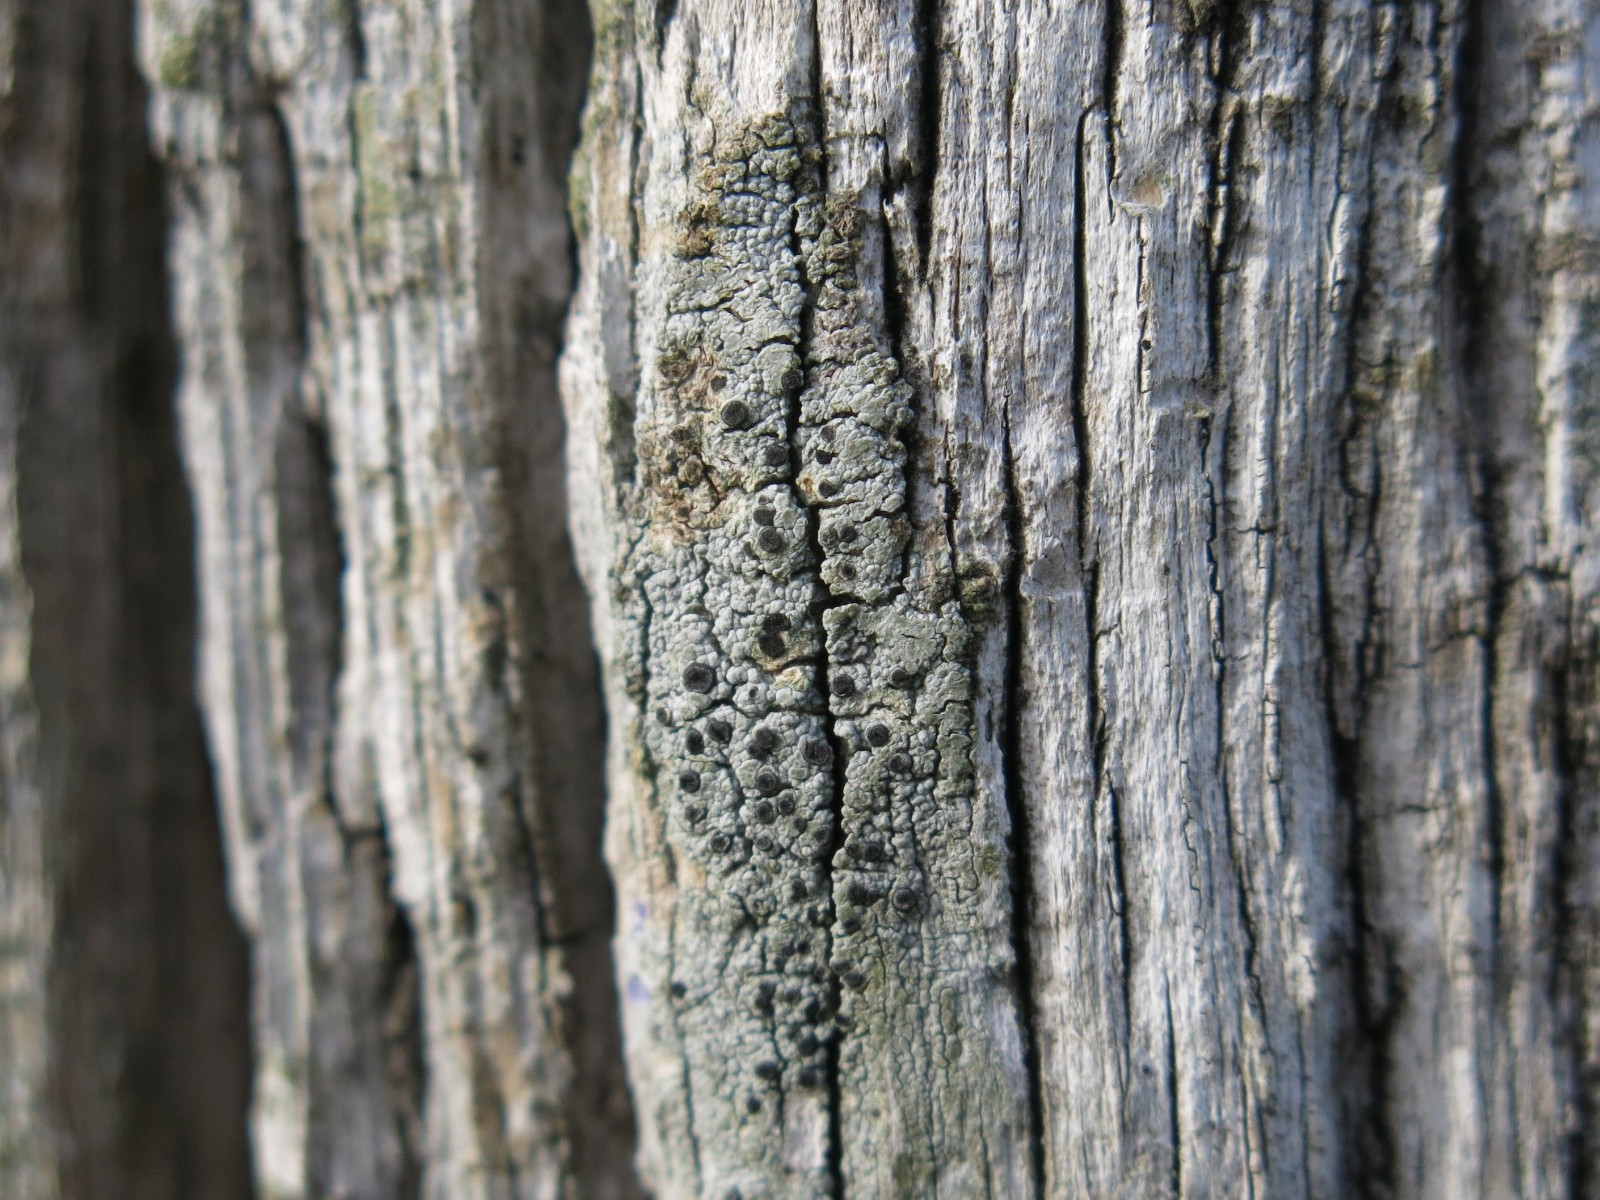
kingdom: Fungi
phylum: Ascomycota
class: Lecanoromycetes
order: Caliciales
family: Caliciaceae
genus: Acolium
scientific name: Acolium inquinans
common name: siddende sodlav
